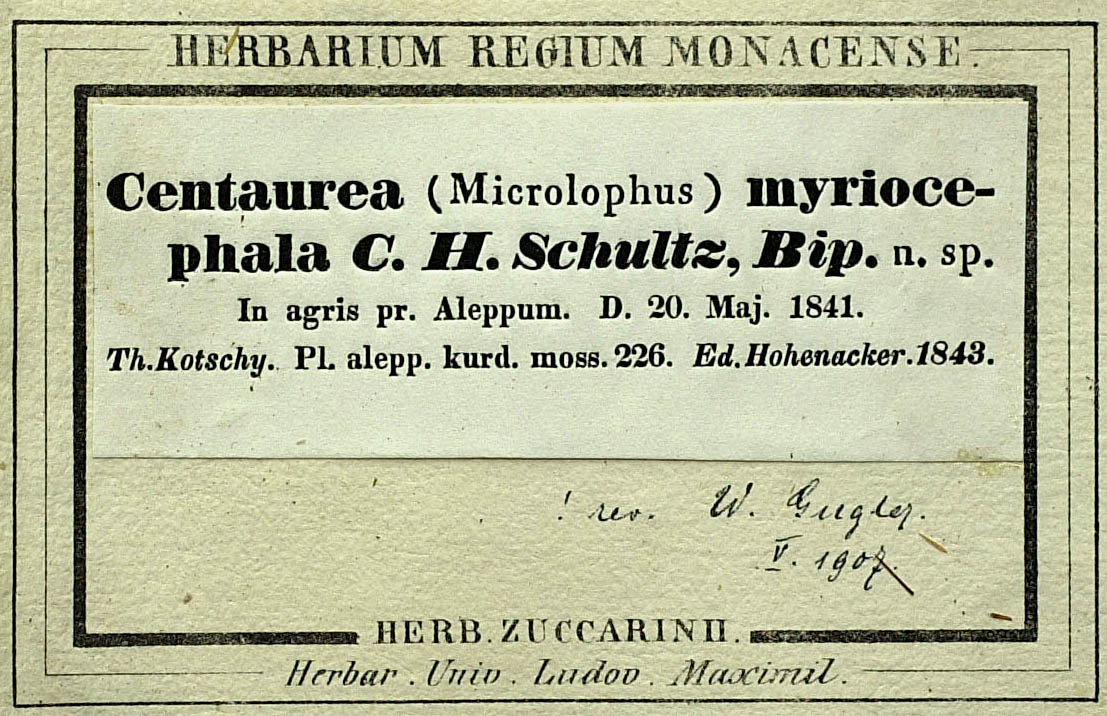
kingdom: Plantae
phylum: Tracheophyta
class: Magnoliopsida
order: Asterales
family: Asteraceae
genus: Centaurea
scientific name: Centaurea rigida
